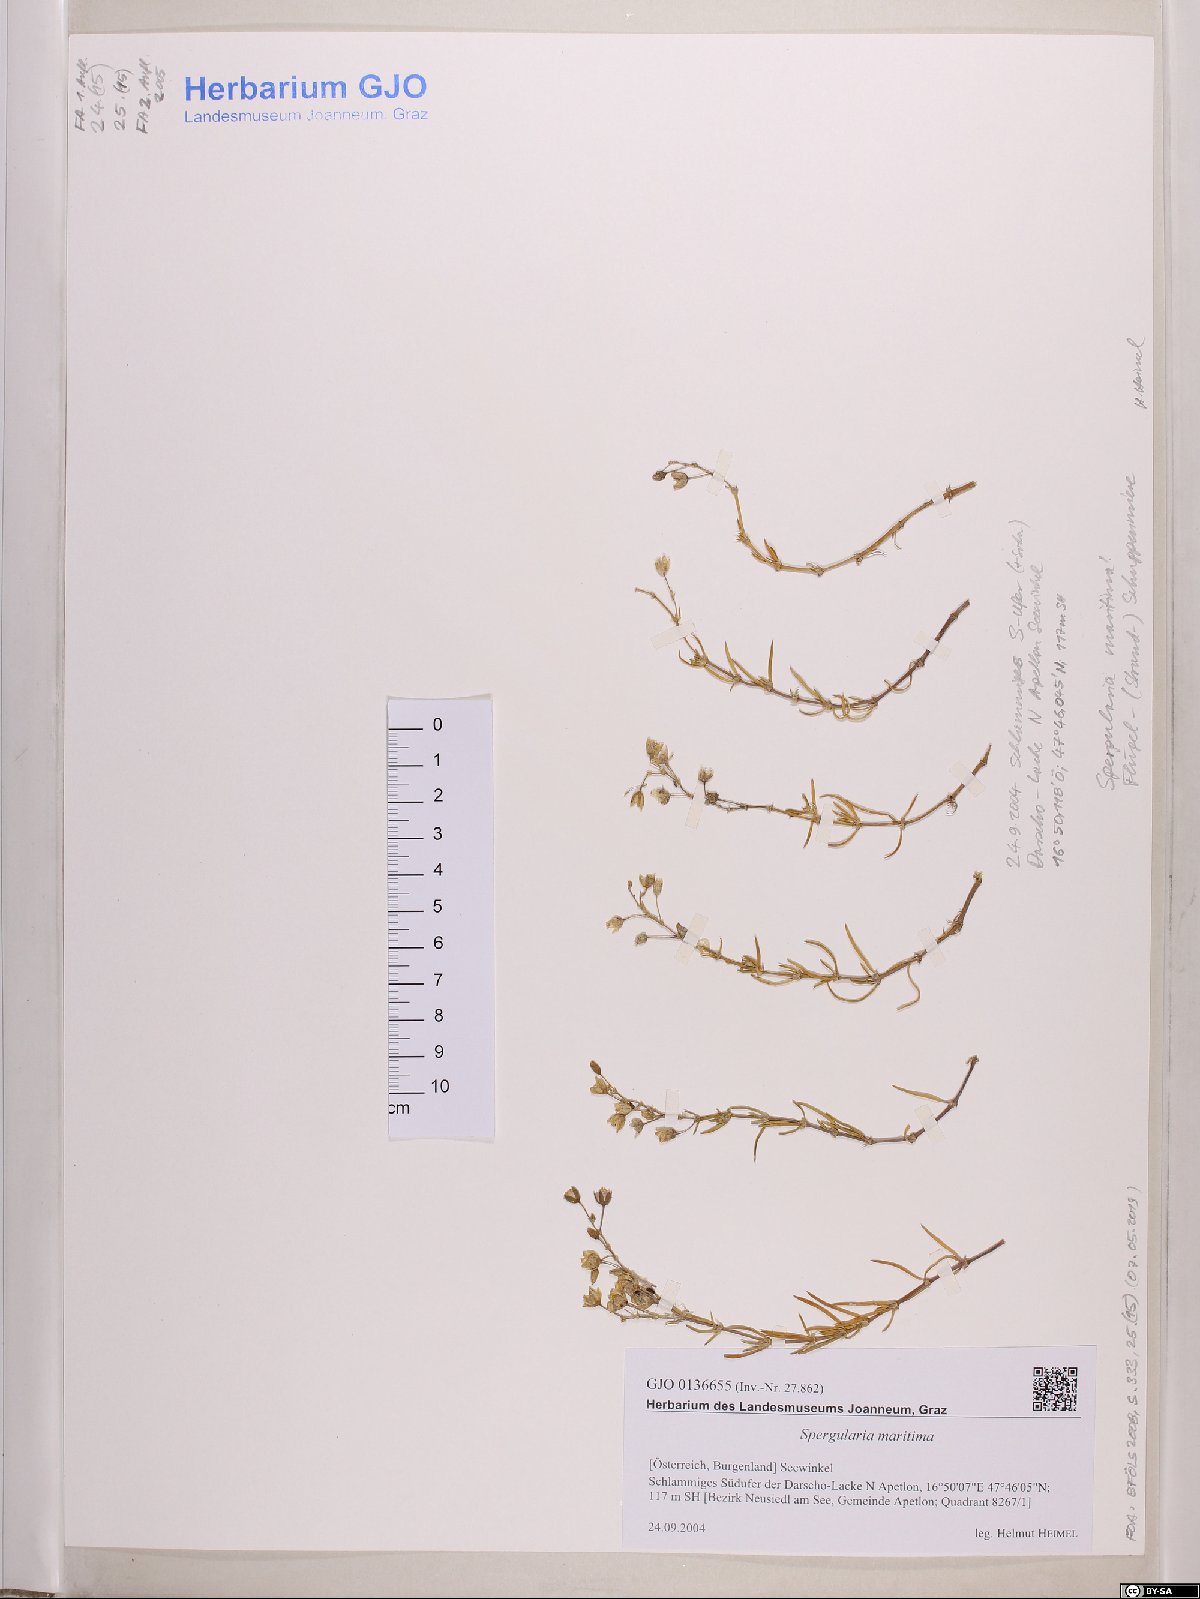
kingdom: Plantae
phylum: Tracheophyta
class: Magnoliopsida
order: Caryophyllales
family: Caryophyllaceae
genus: Spergularia
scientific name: Spergularia media
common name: Greater sea-spurrey
